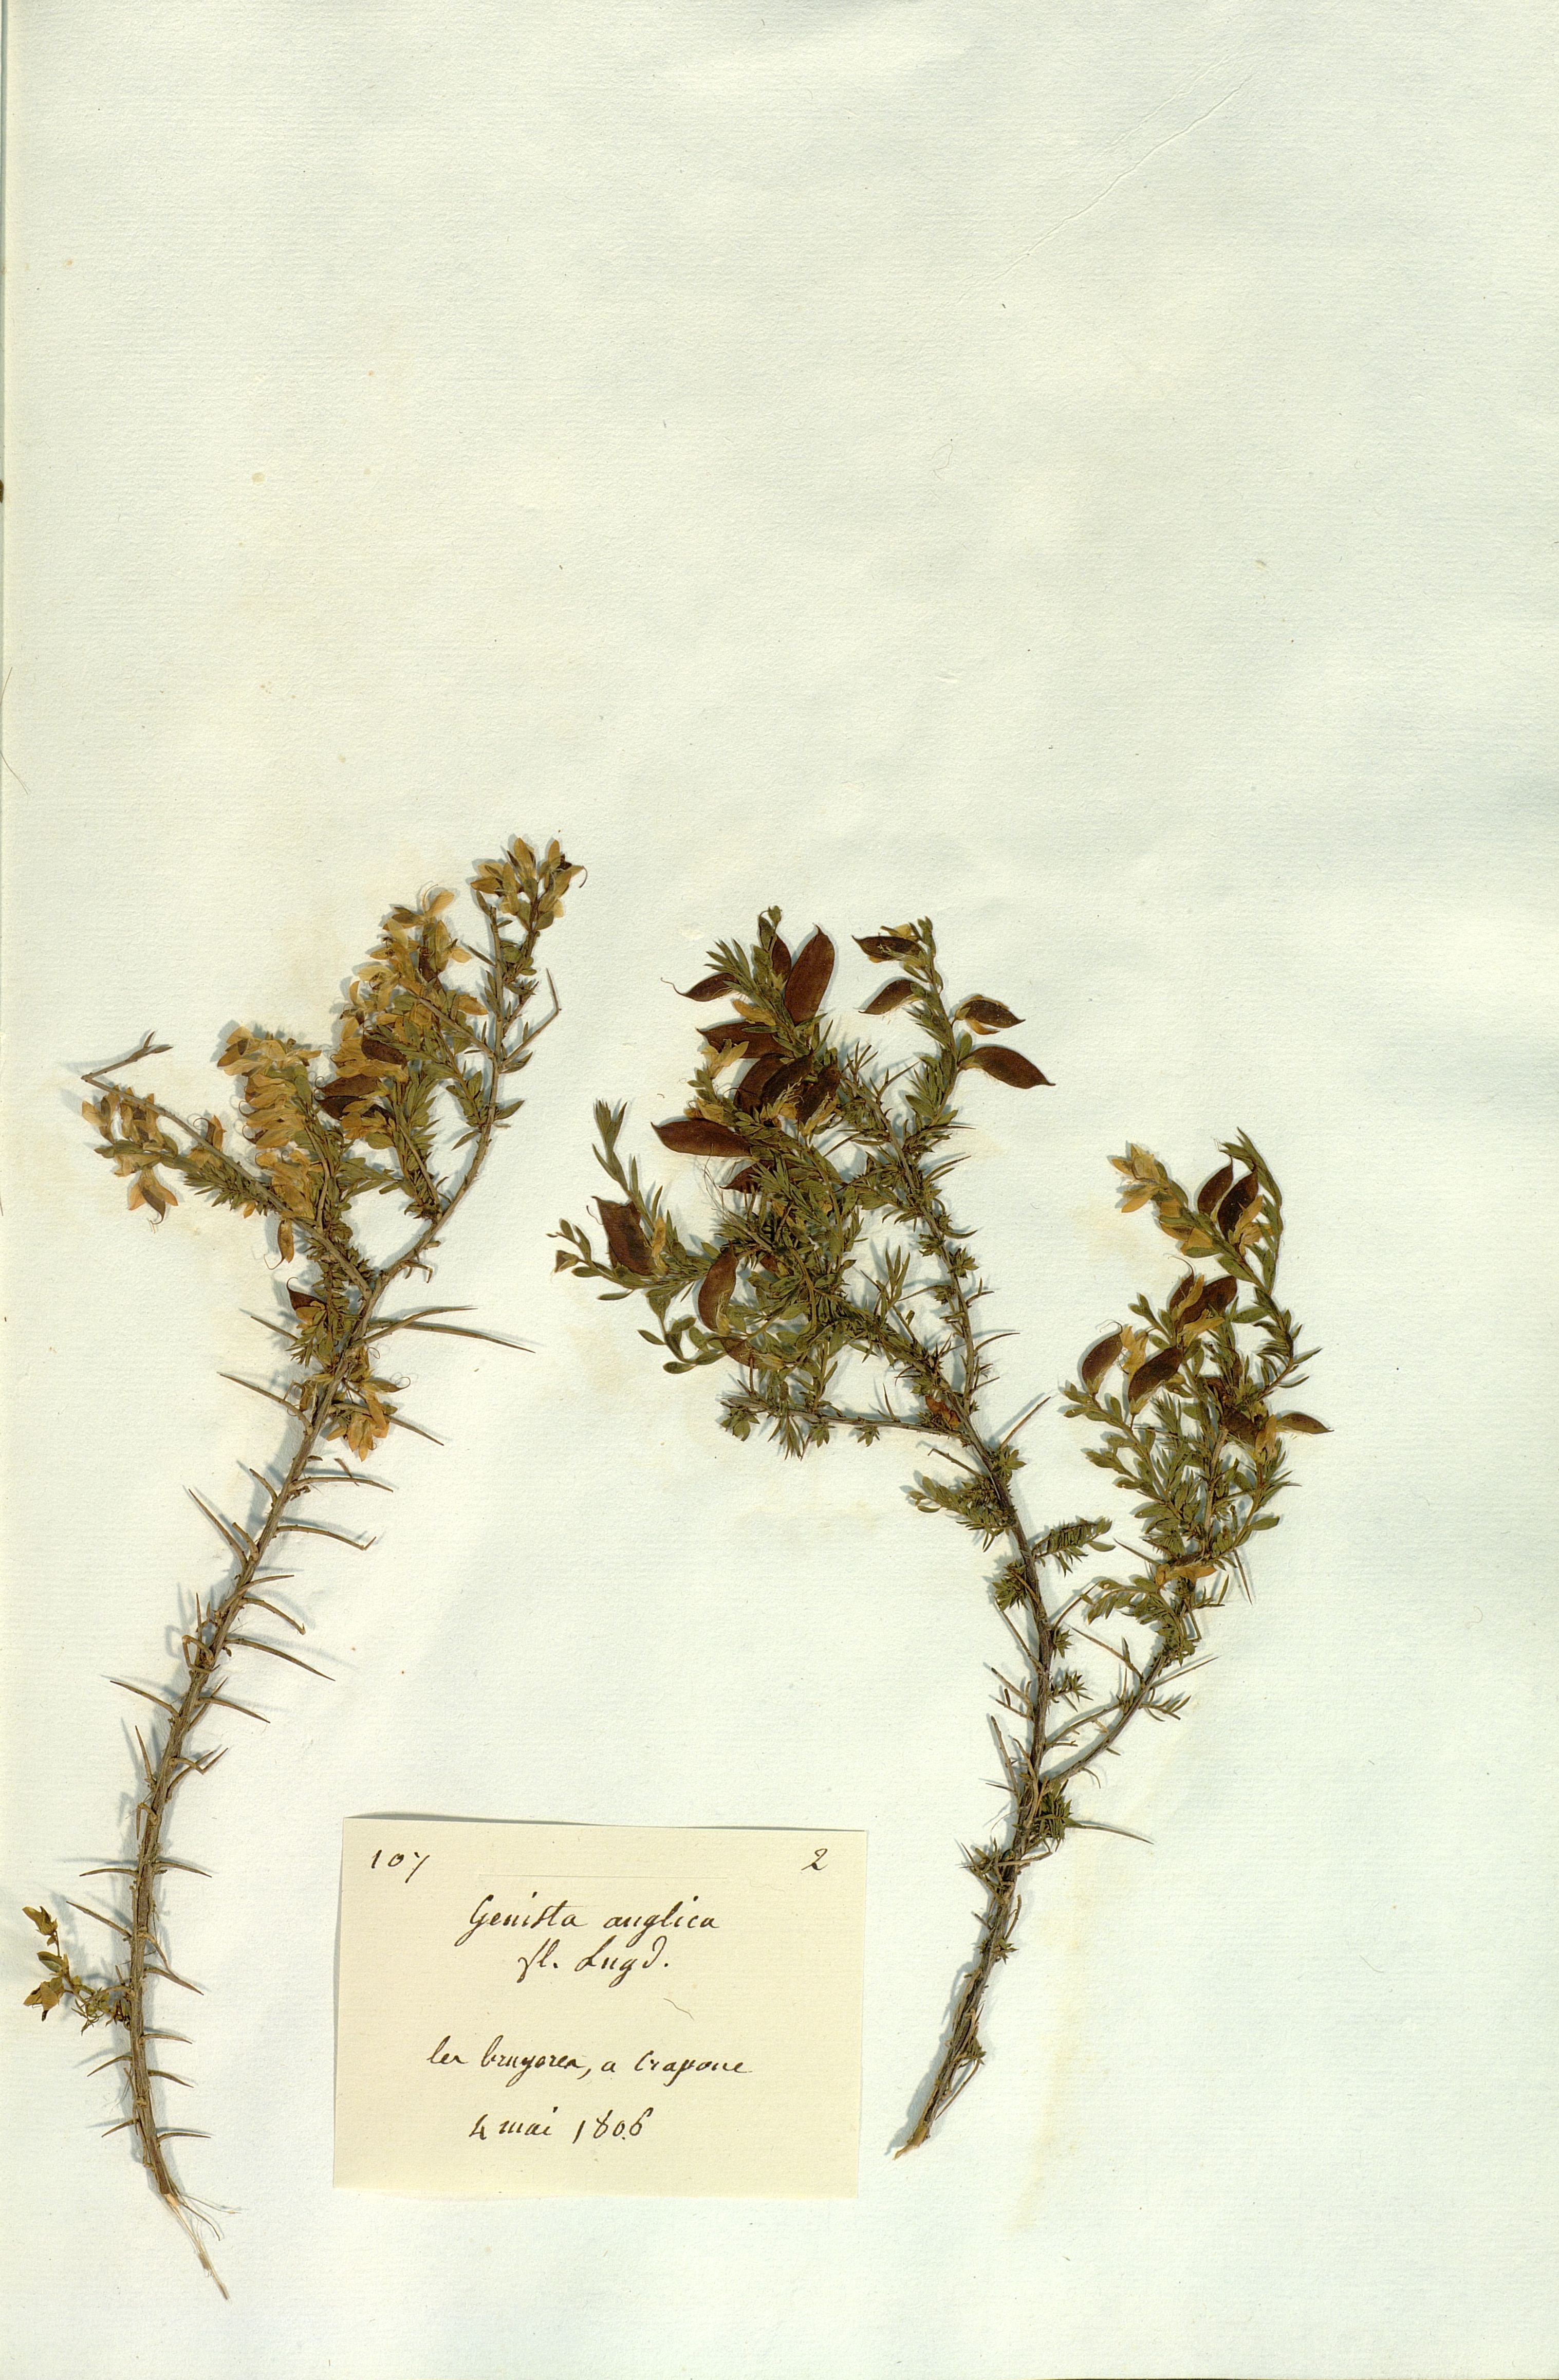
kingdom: Plantae
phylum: Tracheophyta
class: Magnoliopsida
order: Fabales
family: Fabaceae
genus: Genista
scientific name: Genista anglica
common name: Petty whin
